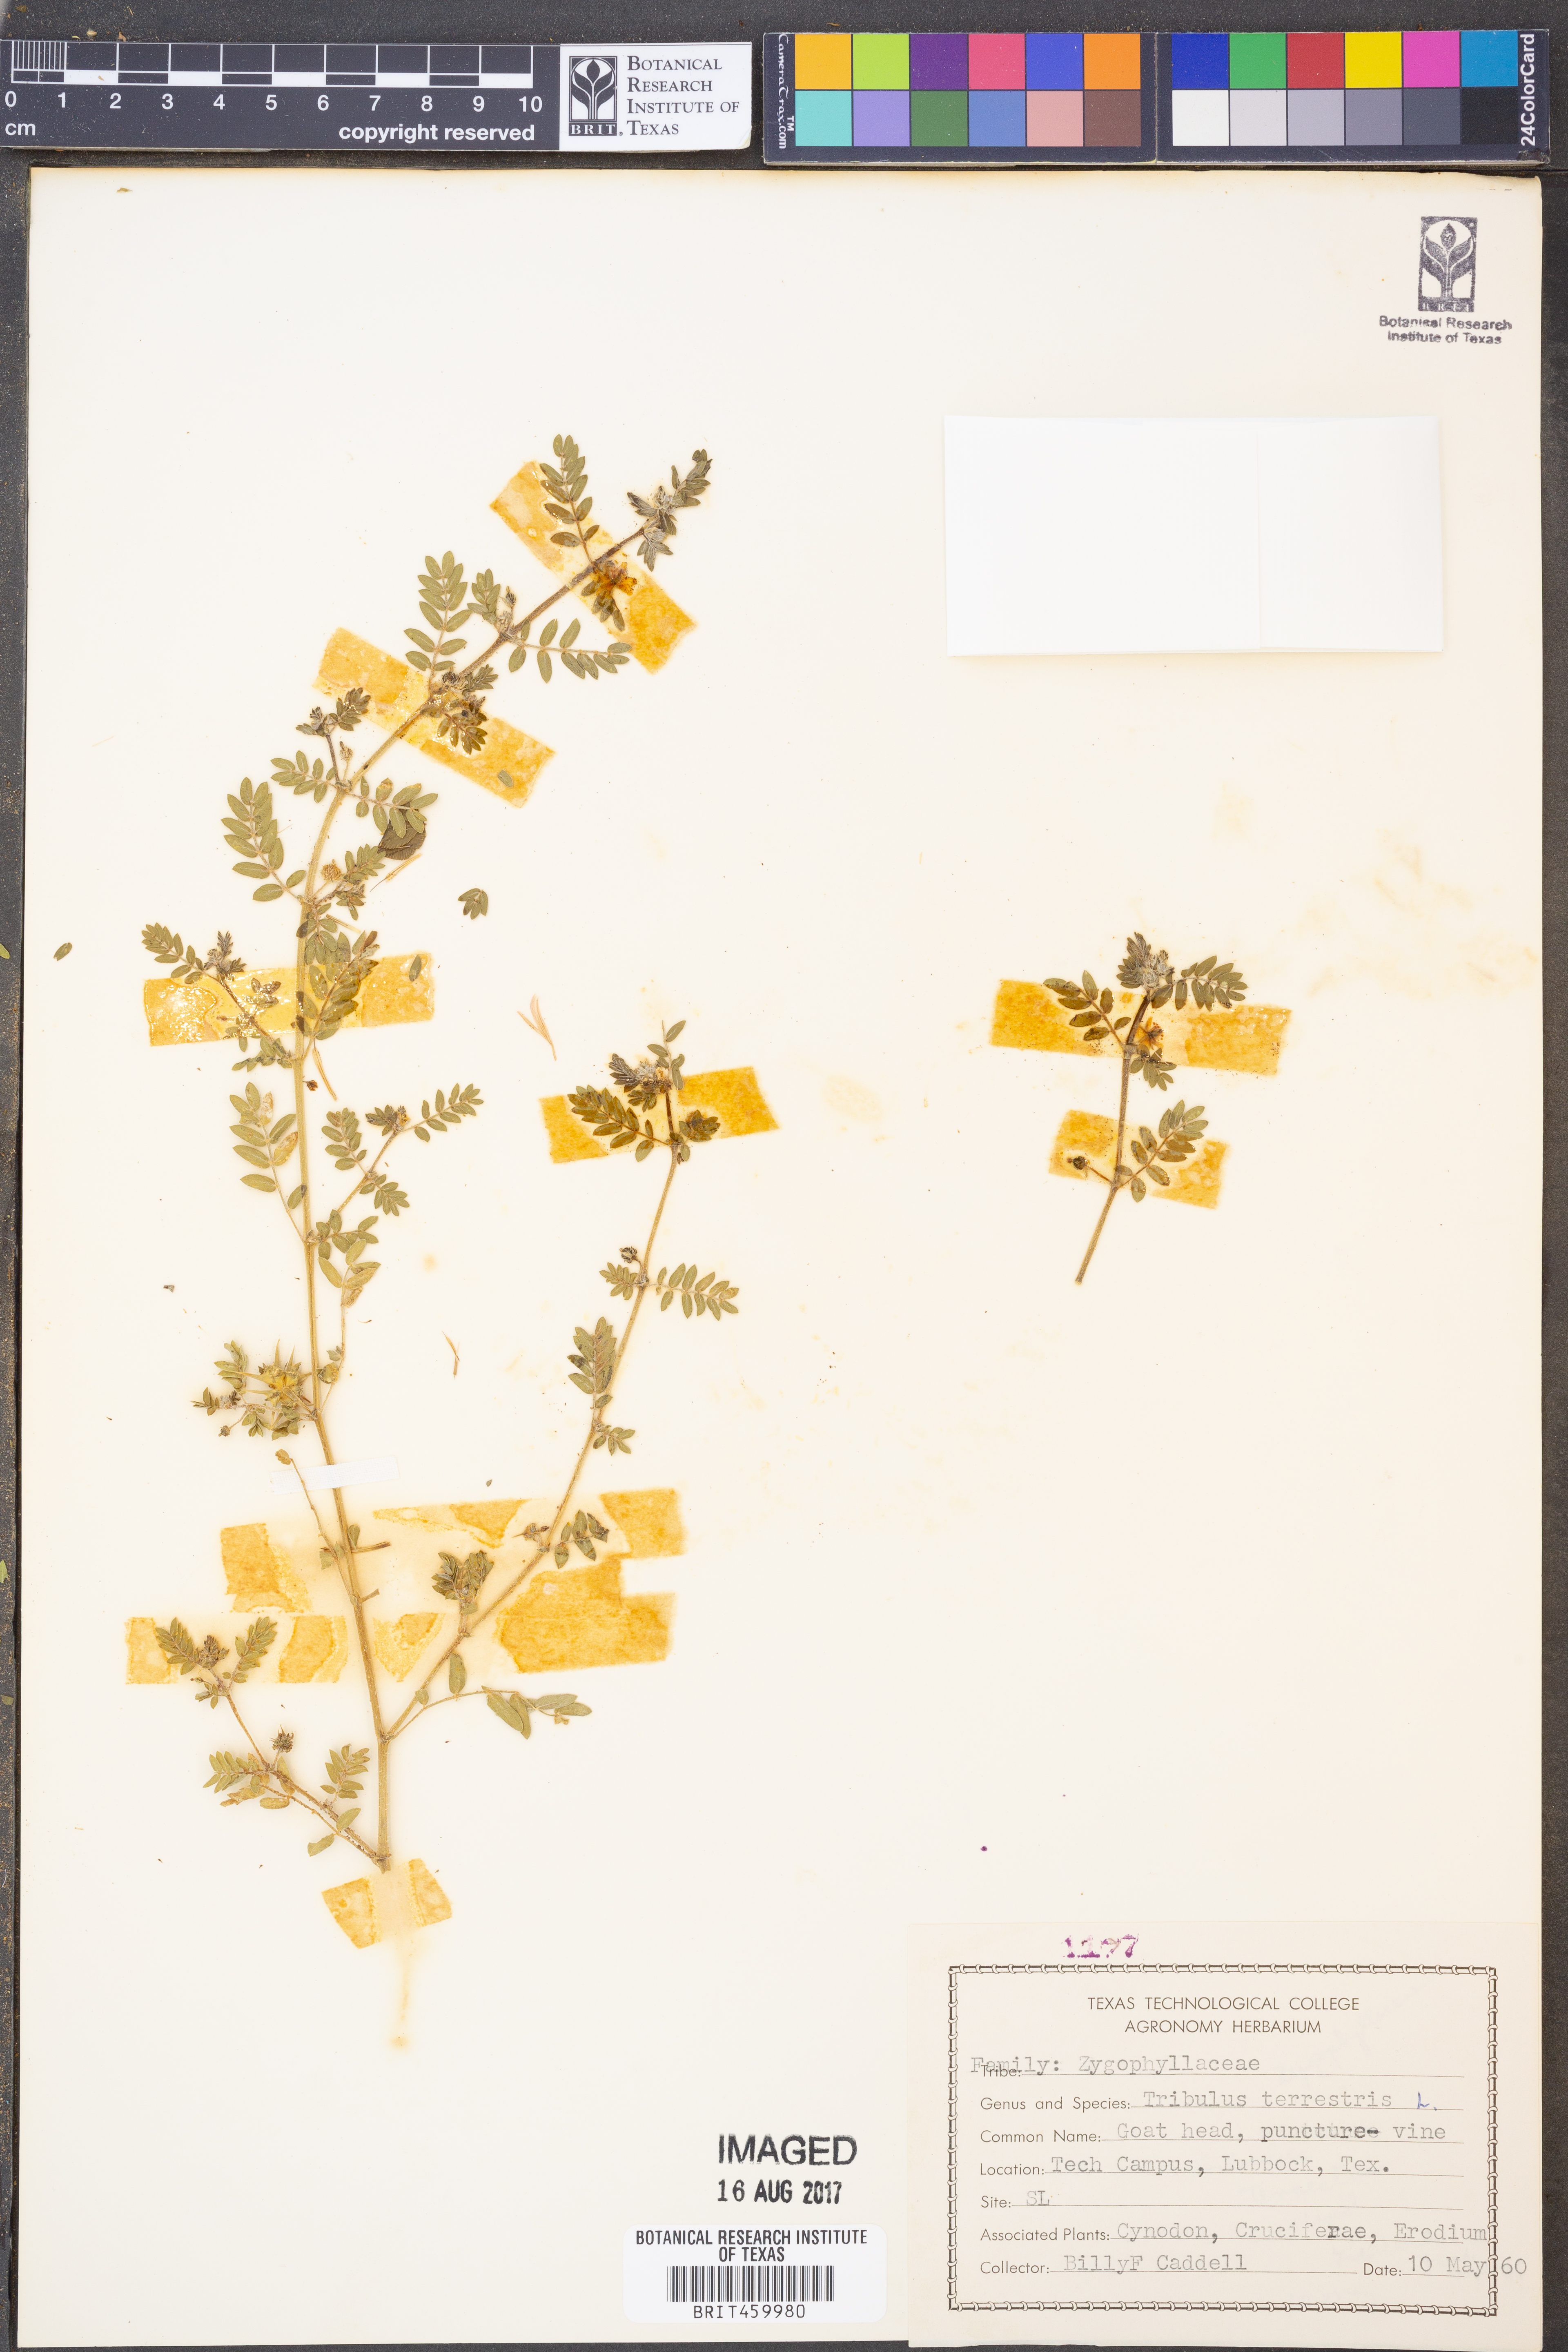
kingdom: Plantae
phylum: Tracheophyta
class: Magnoliopsida
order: Zygophyllales
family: Zygophyllaceae
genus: Tribulus
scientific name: Tribulus terrestris
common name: Puncturevine
